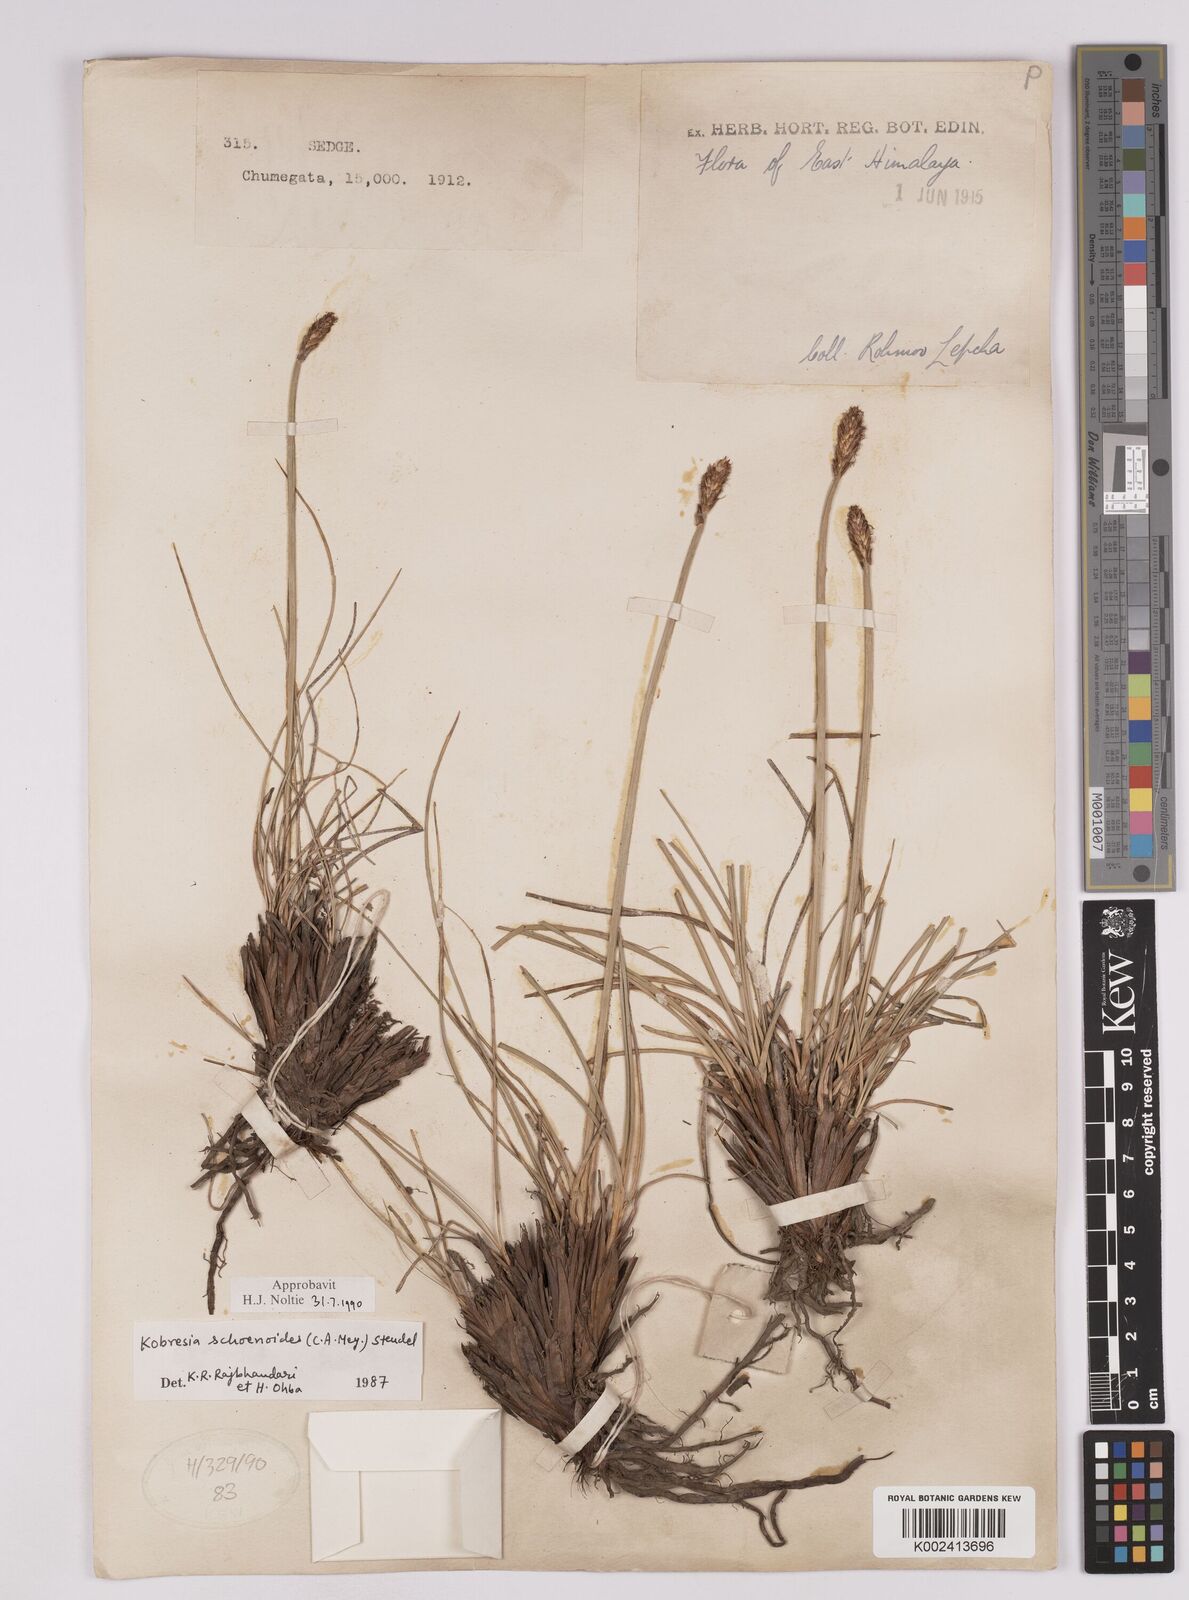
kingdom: Plantae
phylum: Tracheophyta
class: Liliopsida
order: Poales
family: Cyperaceae
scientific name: Cyperaceae
